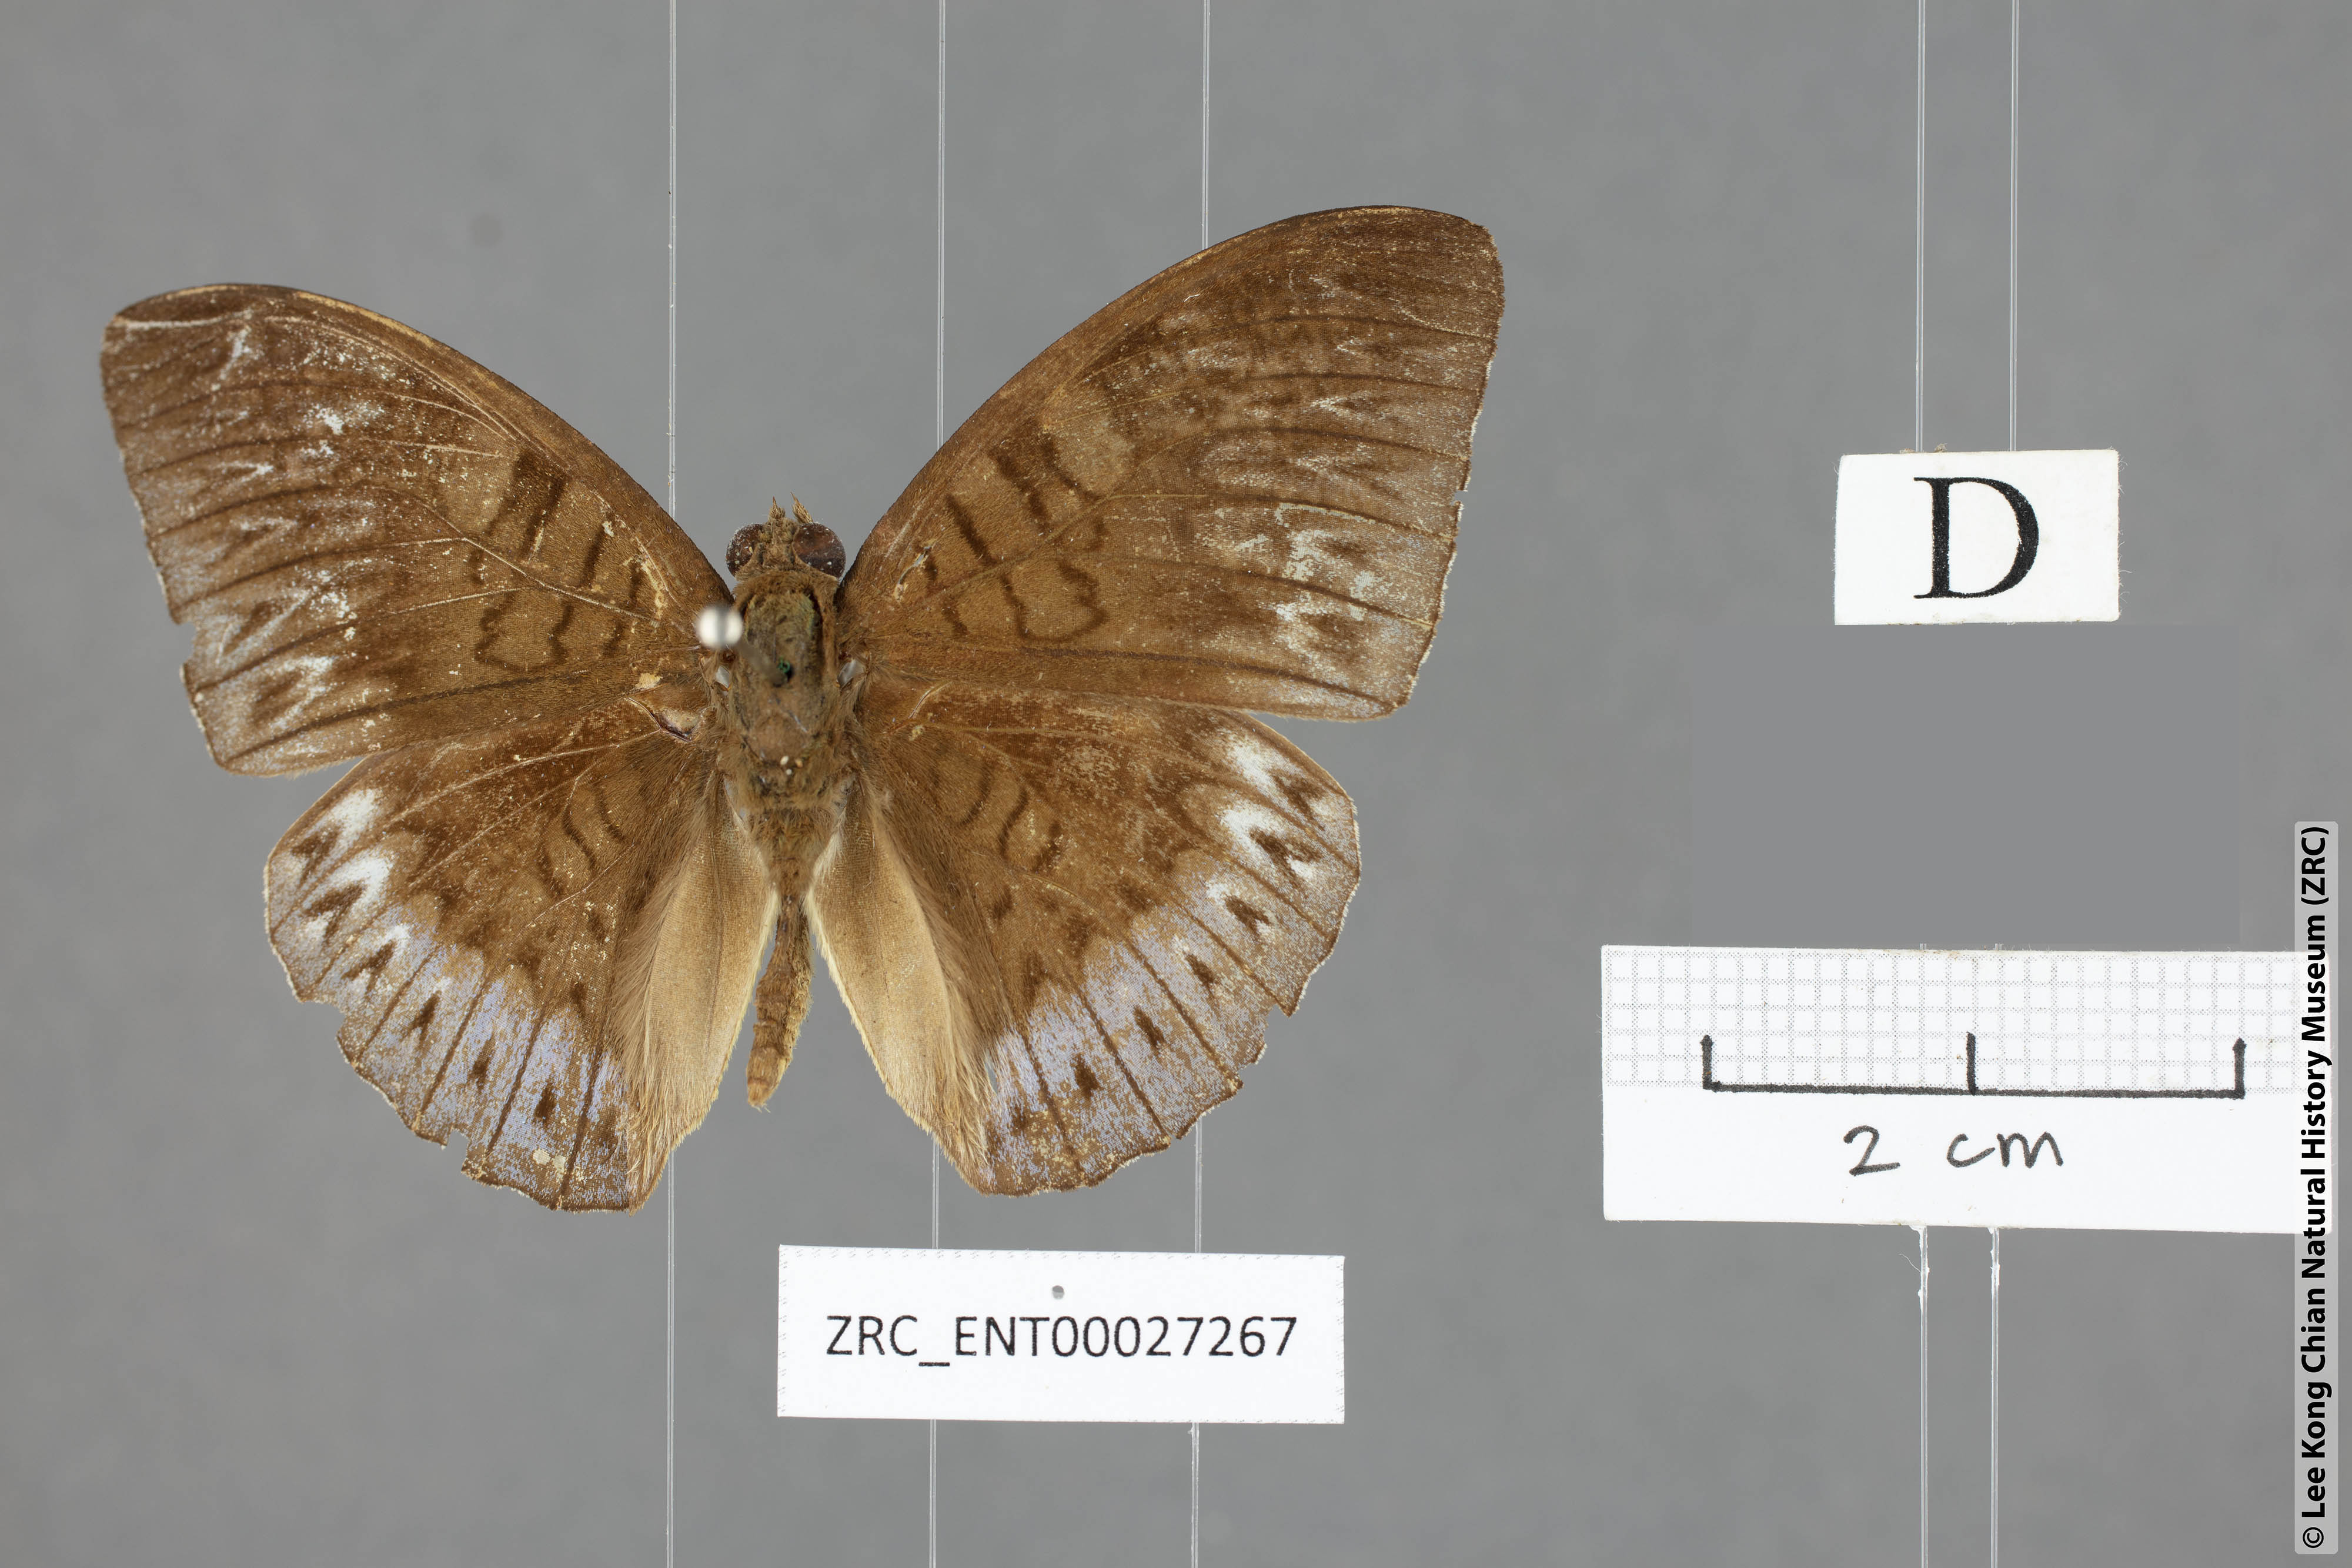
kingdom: Animalia
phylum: Arthropoda
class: Insecta
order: Lepidoptera
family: Nymphalidae
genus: Tanaecia
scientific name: Tanaecia clathrata
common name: Violet-bordered viscount
